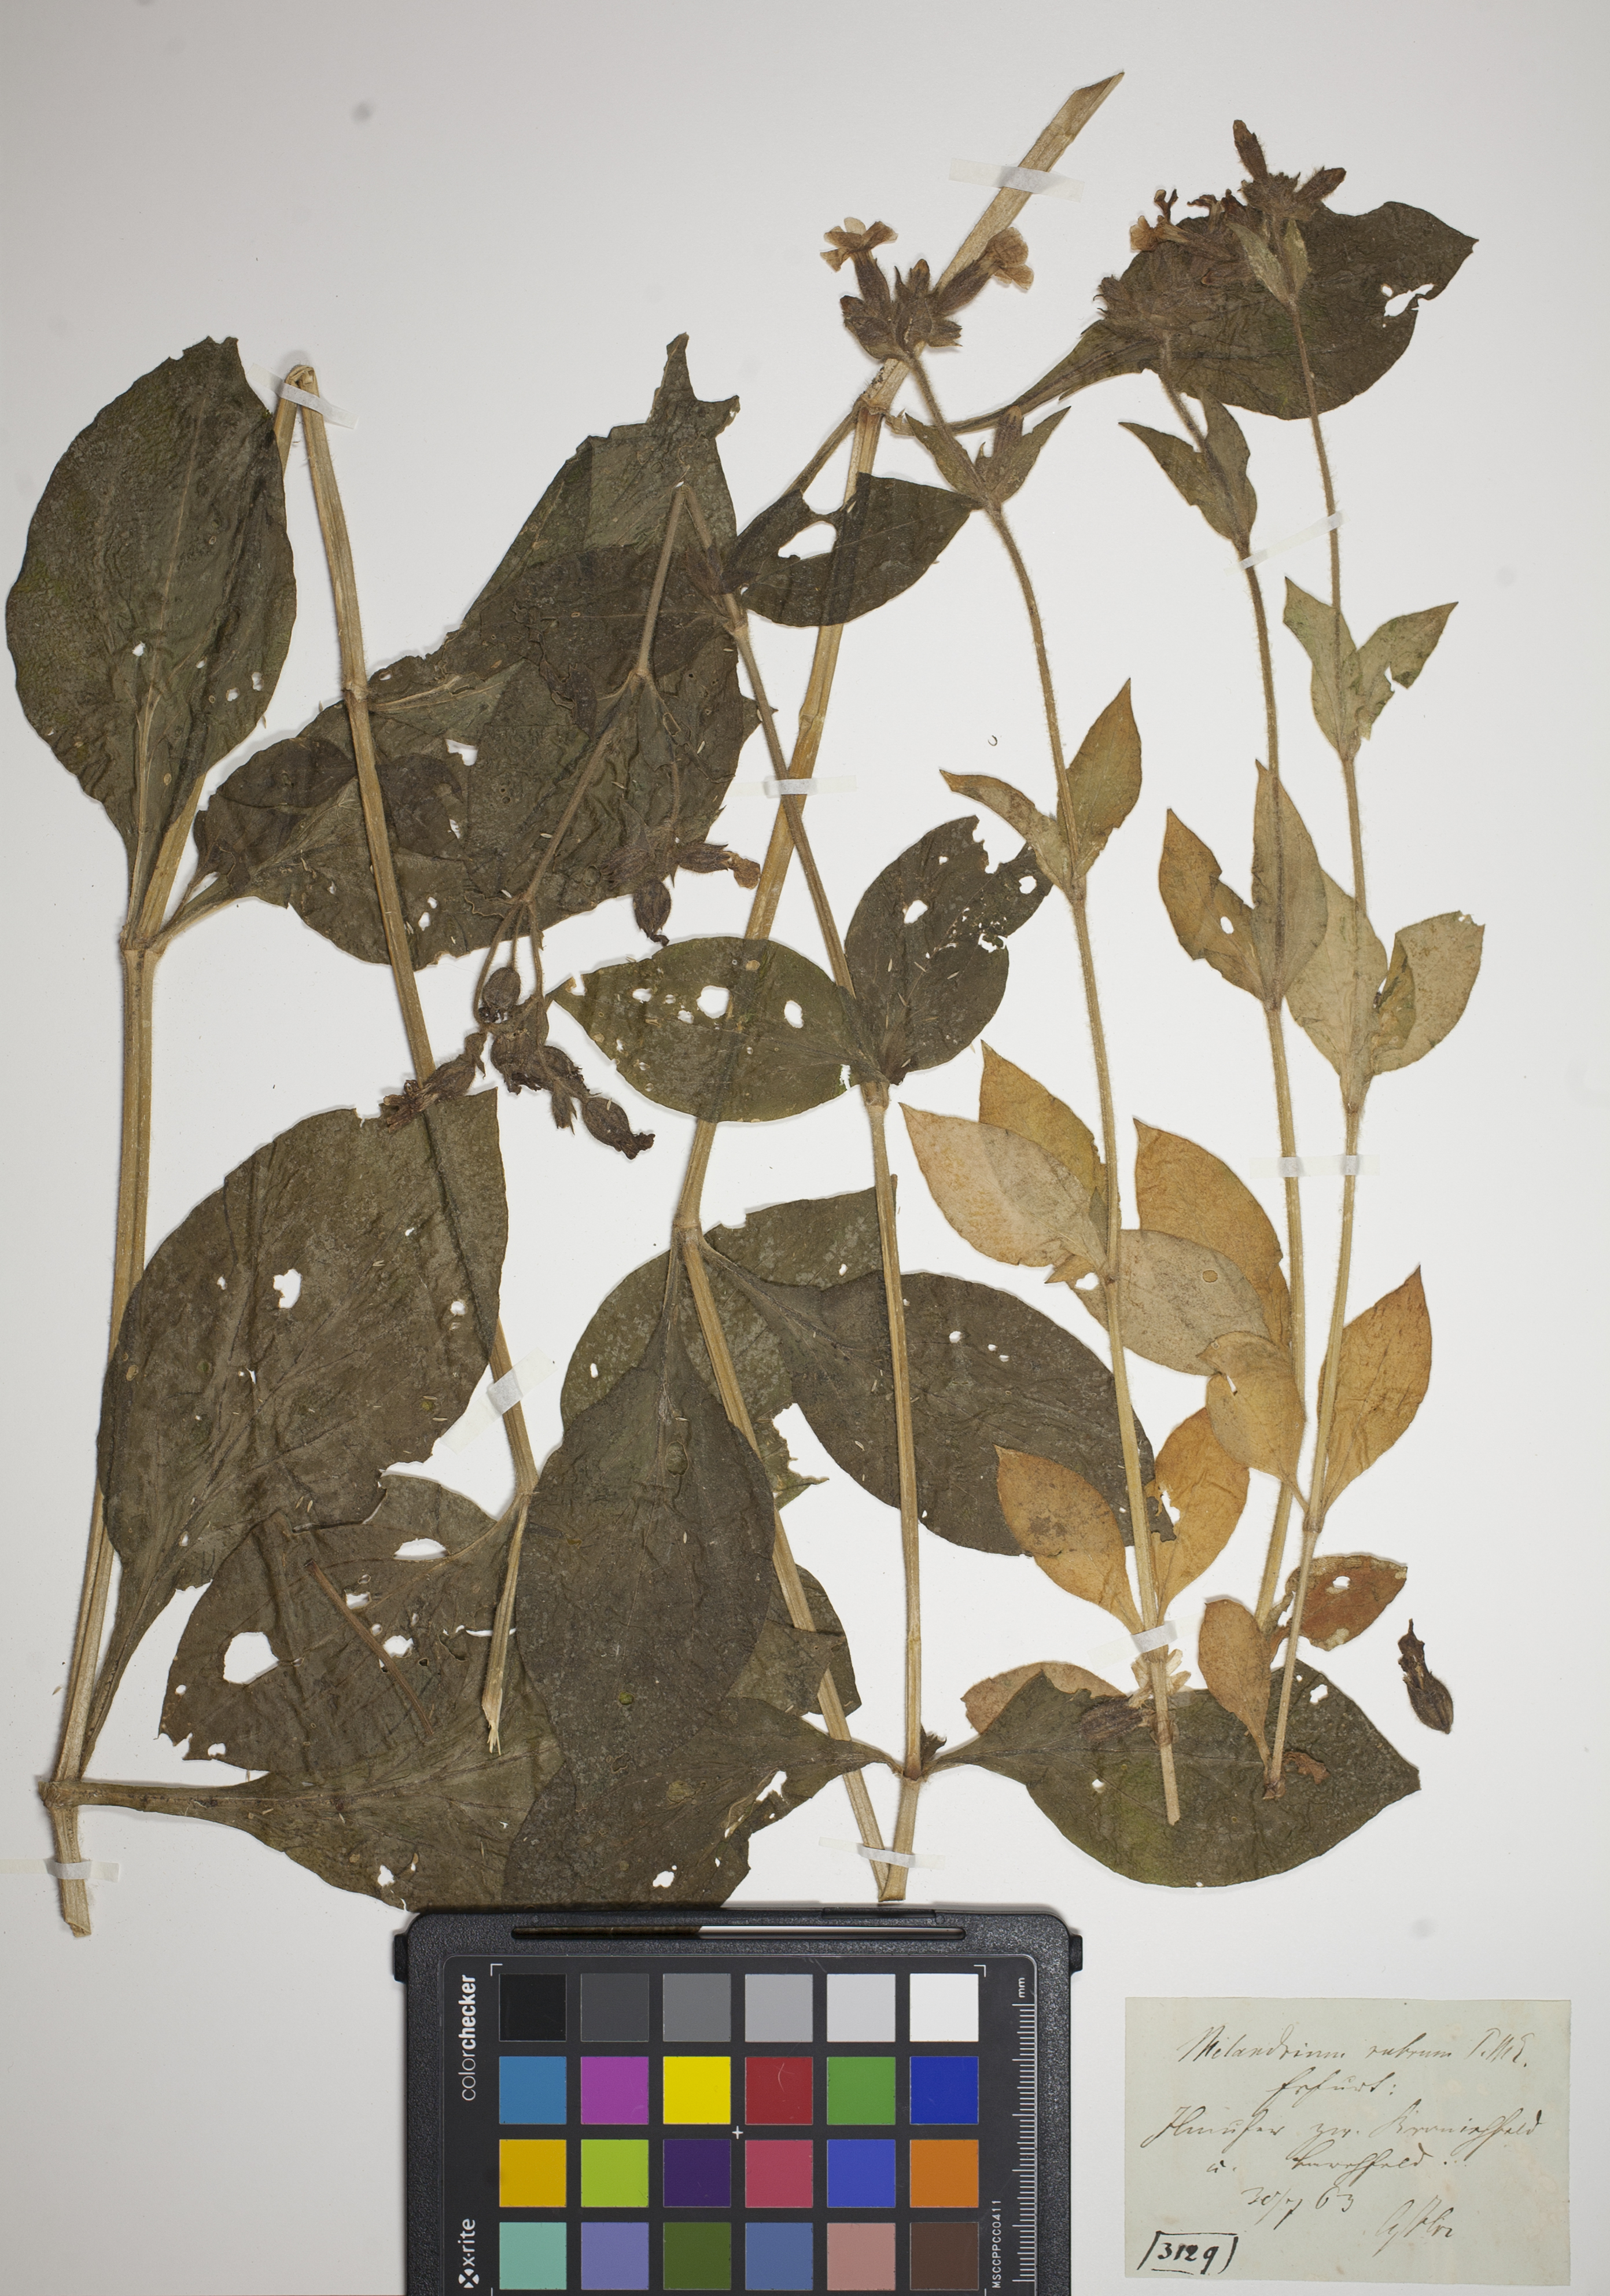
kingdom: Plantae
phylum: Tracheophyta
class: Magnoliopsida
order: Caryophyllales
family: Caryophyllaceae
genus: Silene
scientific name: Silene dioica
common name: Red campion
